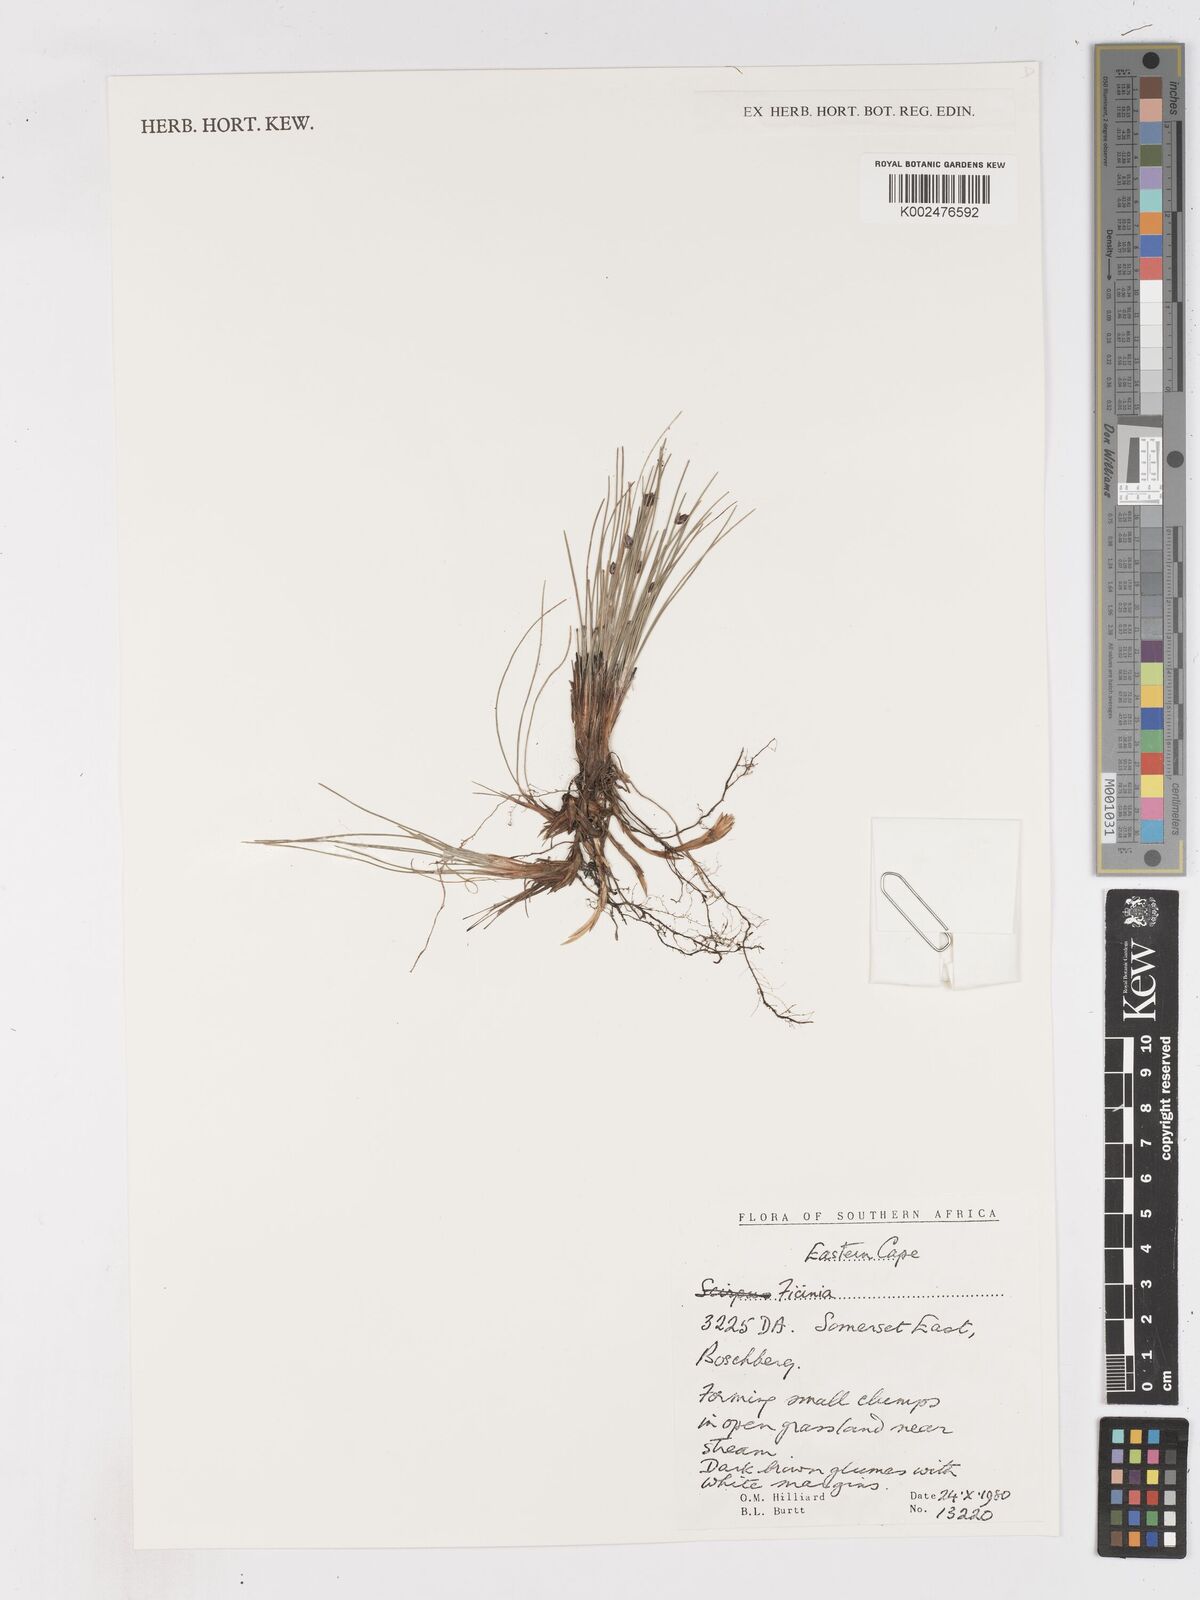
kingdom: Plantae
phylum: Tracheophyta
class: Liliopsida
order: Poales
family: Cyperaceae
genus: Ficinia
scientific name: Ficinia
